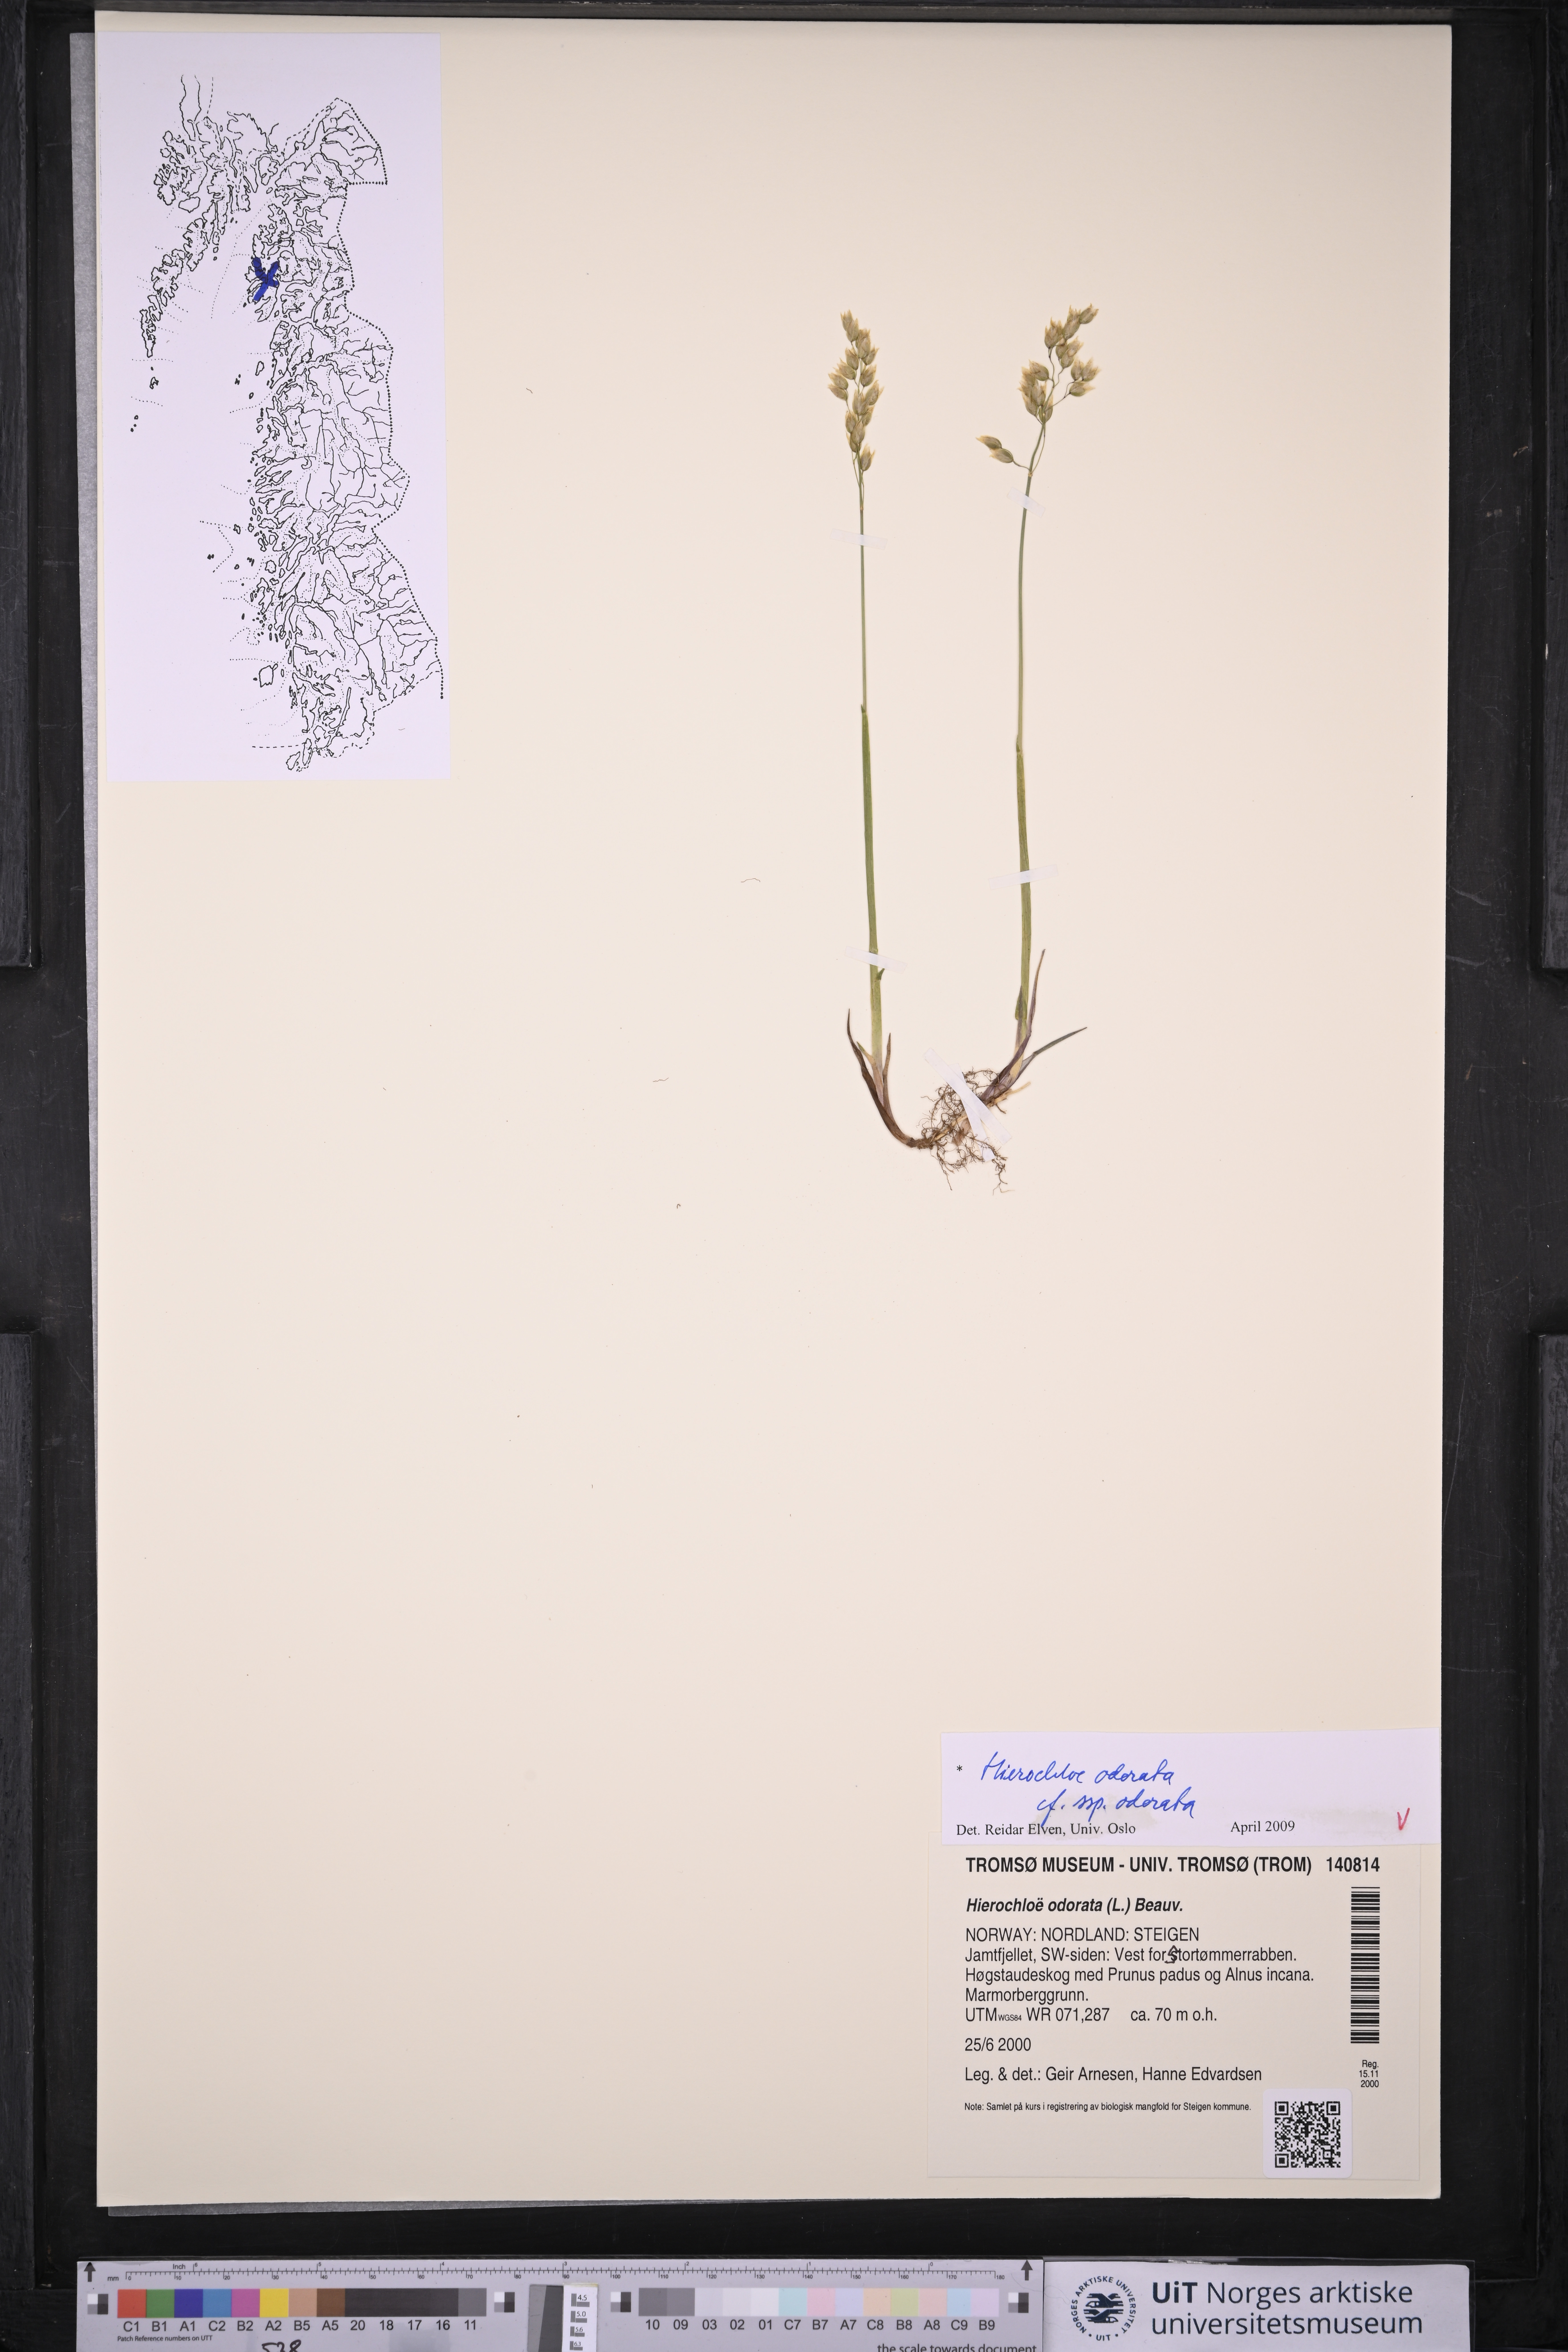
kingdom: Plantae
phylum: Tracheophyta
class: Liliopsida
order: Poales
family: Poaceae
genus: Anthoxanthum
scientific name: Anthoxanthum nitens
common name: Holy grass
